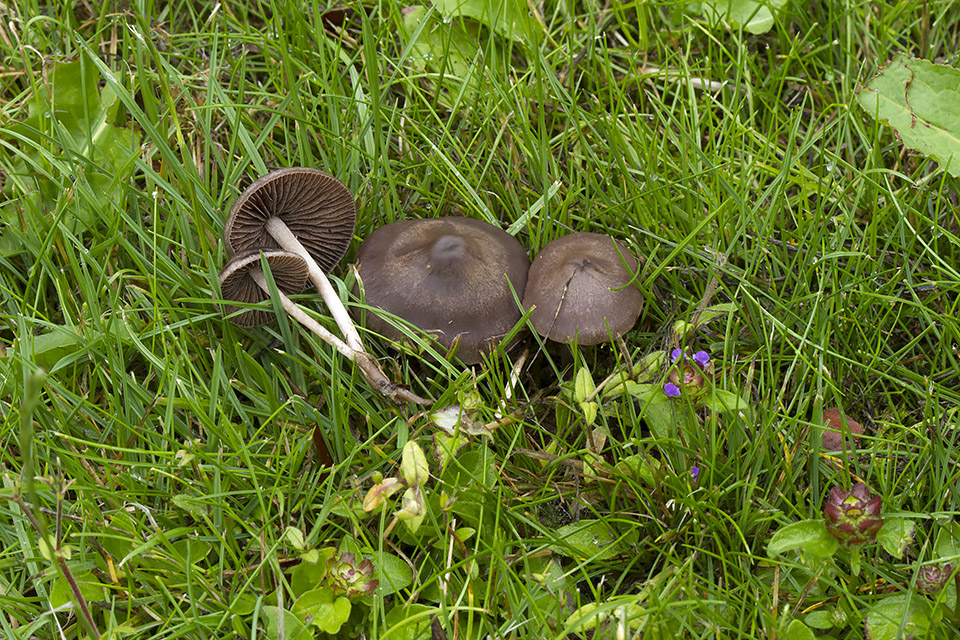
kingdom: Fungi
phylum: Basidiomycota
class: Agaricomycetes
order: Agaricales
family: Bolbitiaceae
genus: Panaeolina
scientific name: Panaeolina foenisecii
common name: høslætsvamp
